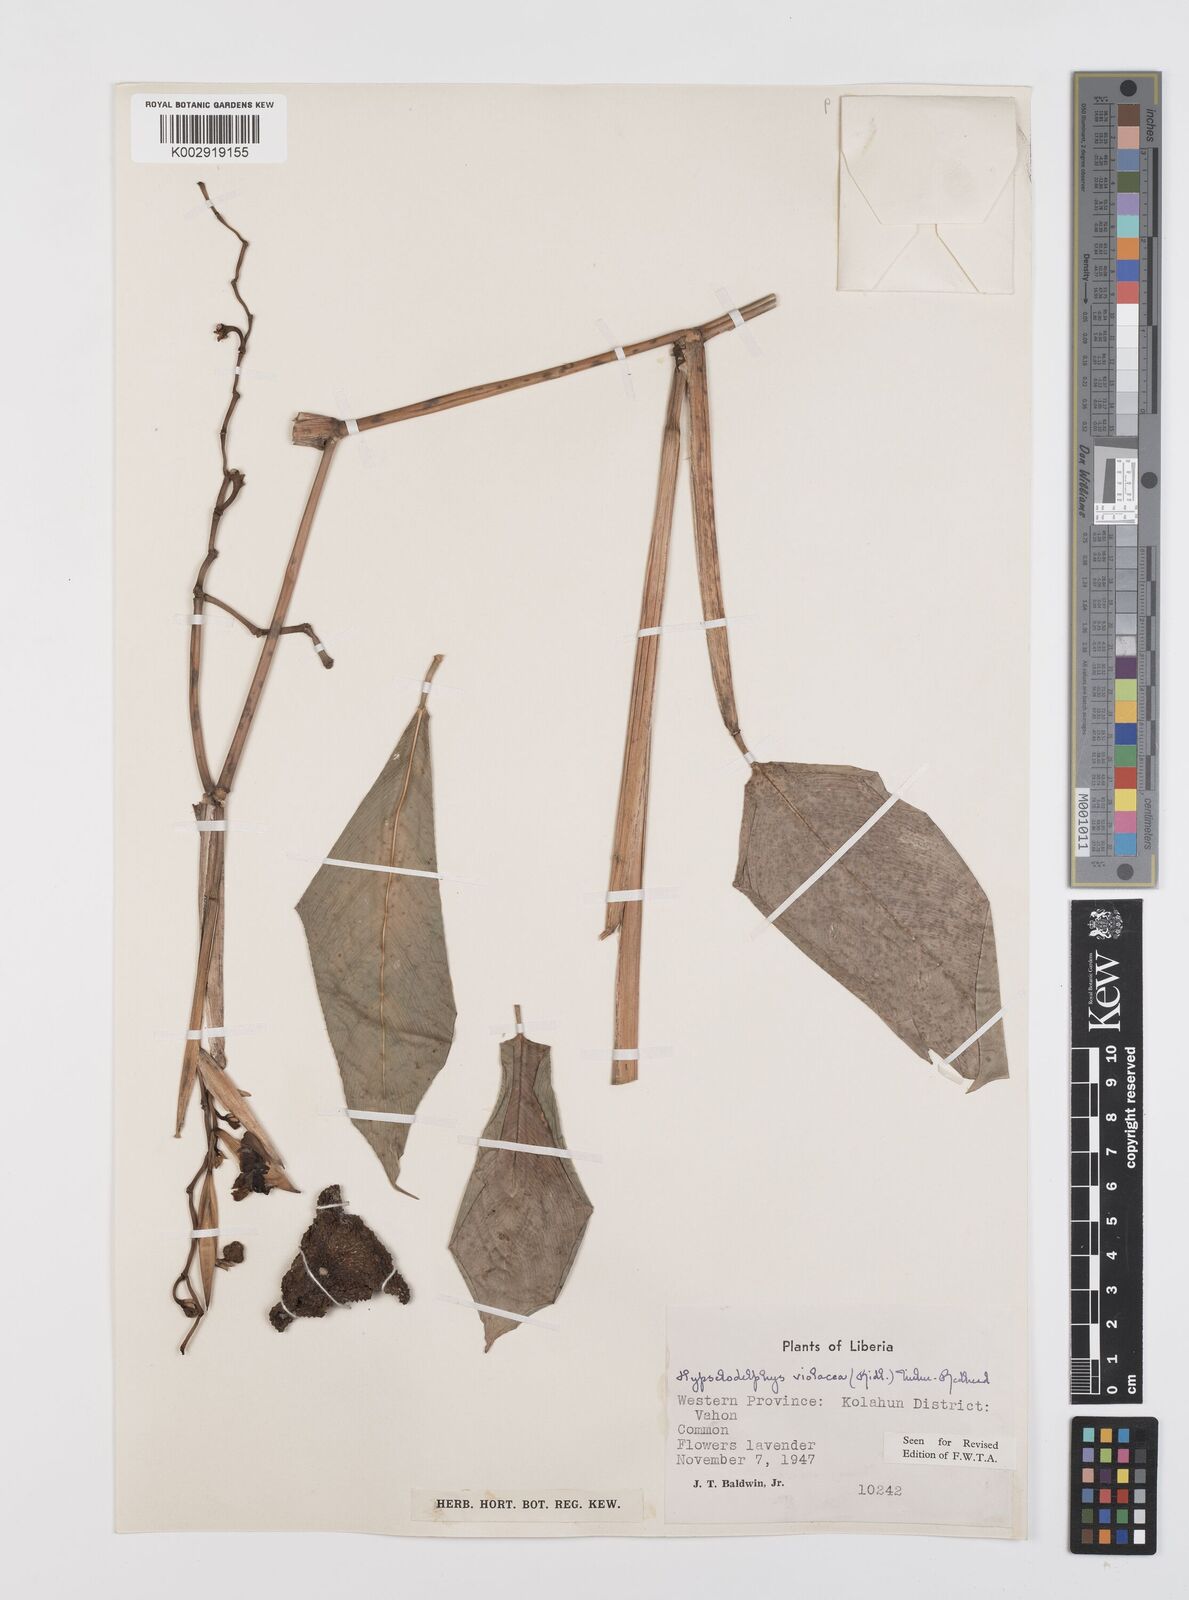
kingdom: Plantae
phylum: Tracheophyta
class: Liliopsida
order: Zingiberales
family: Marantaceae
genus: Hypselodelphys
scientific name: Hypselodelphys violacea
